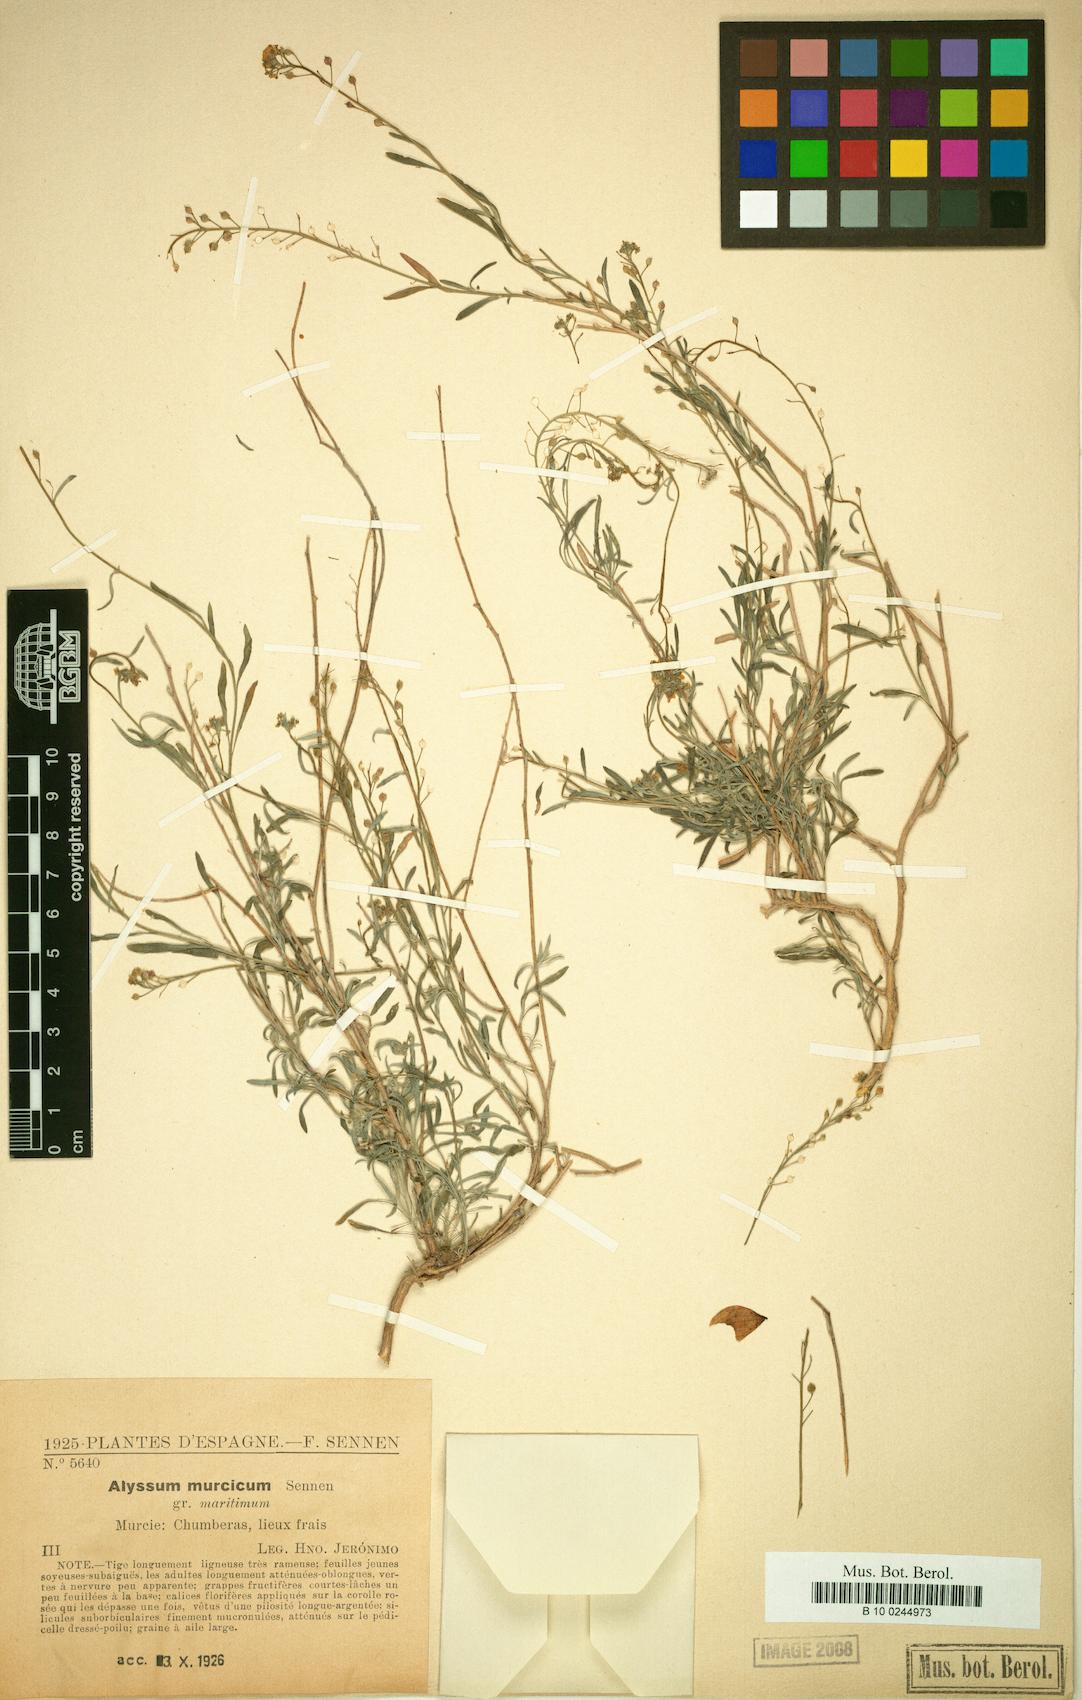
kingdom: Plantae
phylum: Tracheophyta
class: Magnoliopsida
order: Brassicales
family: Brassicaceae
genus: Odontarrhena
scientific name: Odontarrhena serpyllifolia
